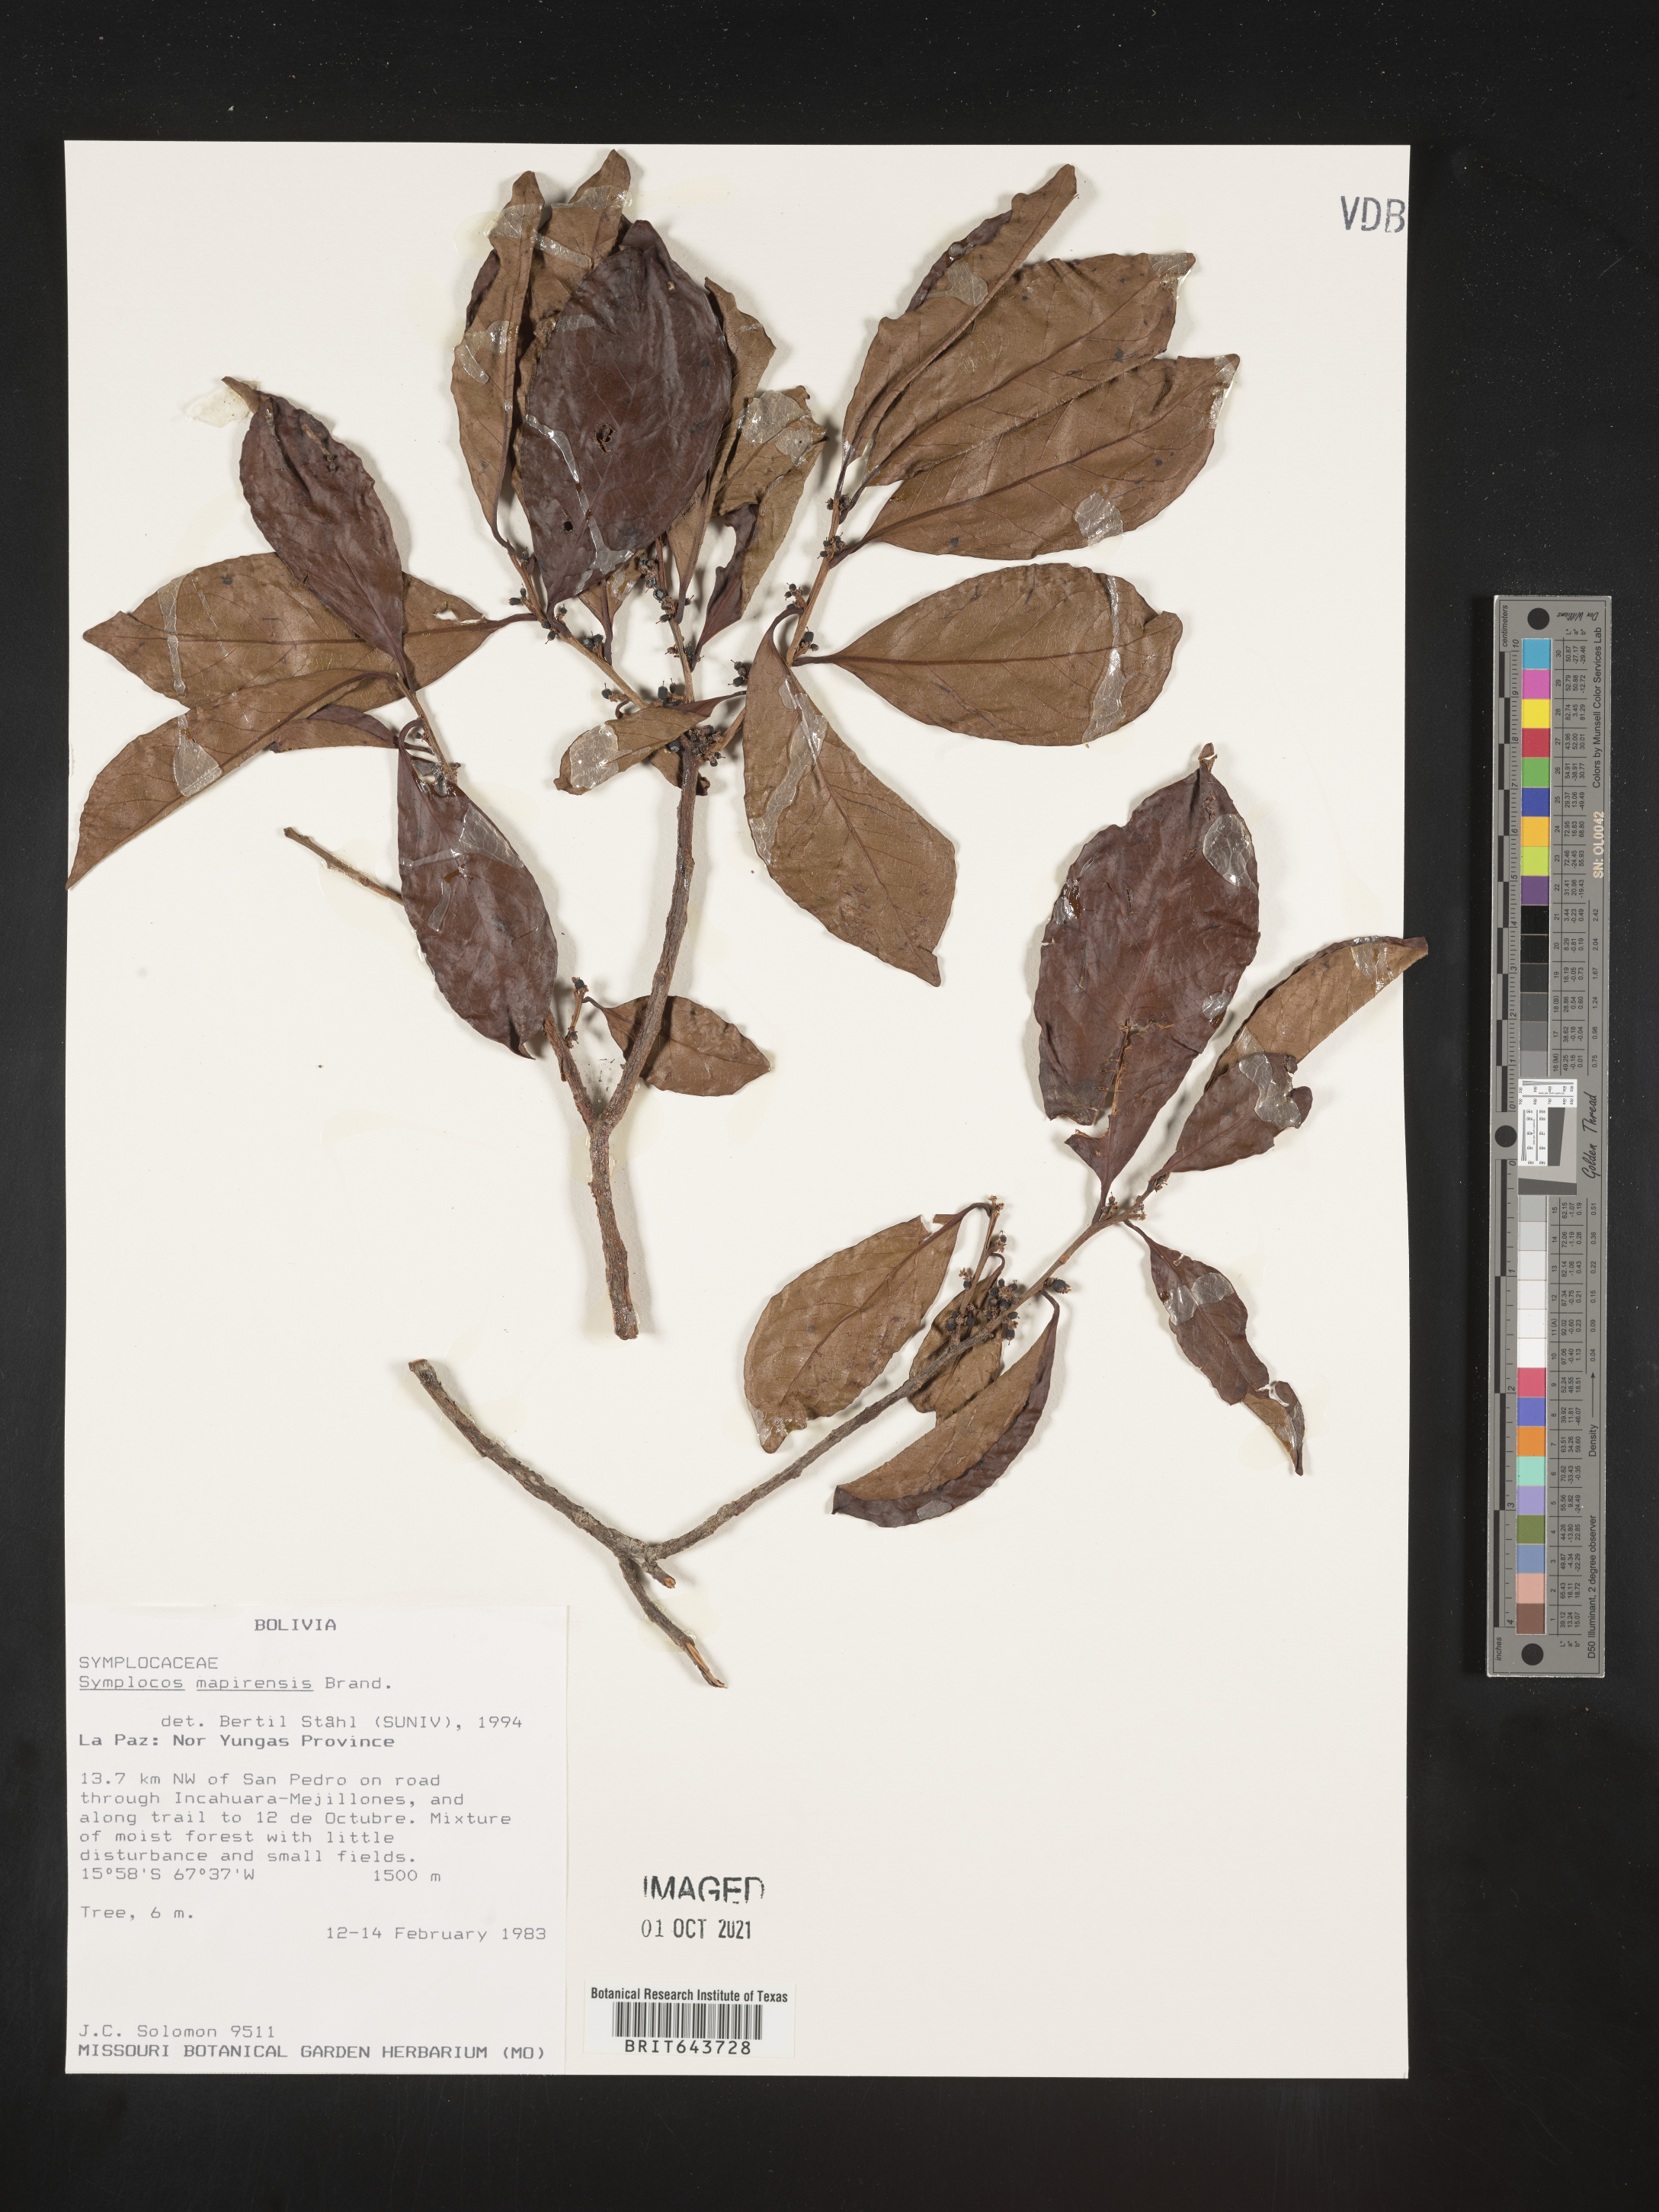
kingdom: Plantae
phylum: Tracheophyta
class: Magnoliopsida
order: Ericales
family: Symplocaceae
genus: Symplocos
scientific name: Symplocos
